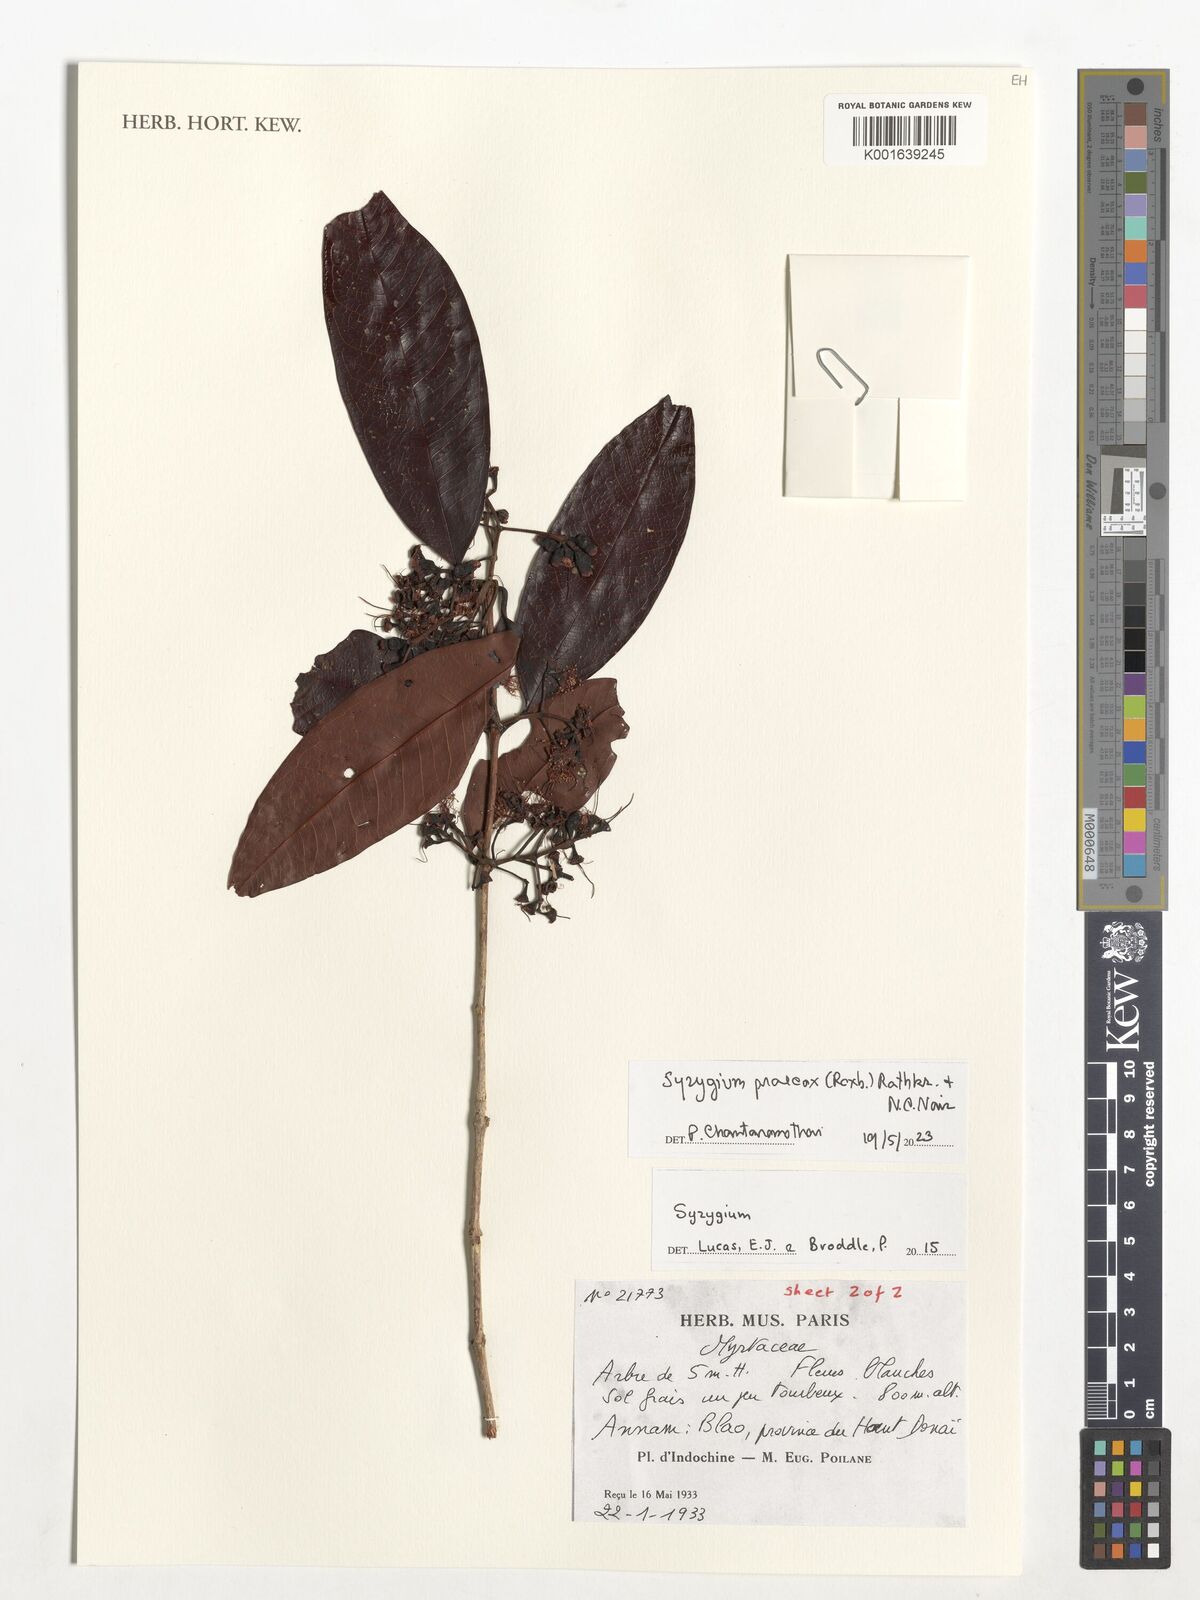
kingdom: Plantae
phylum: Tracheophyta
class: Magnoliopsida
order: Myrtales
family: Myrtaceae
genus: Syzygium
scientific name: Syzygium praecox
